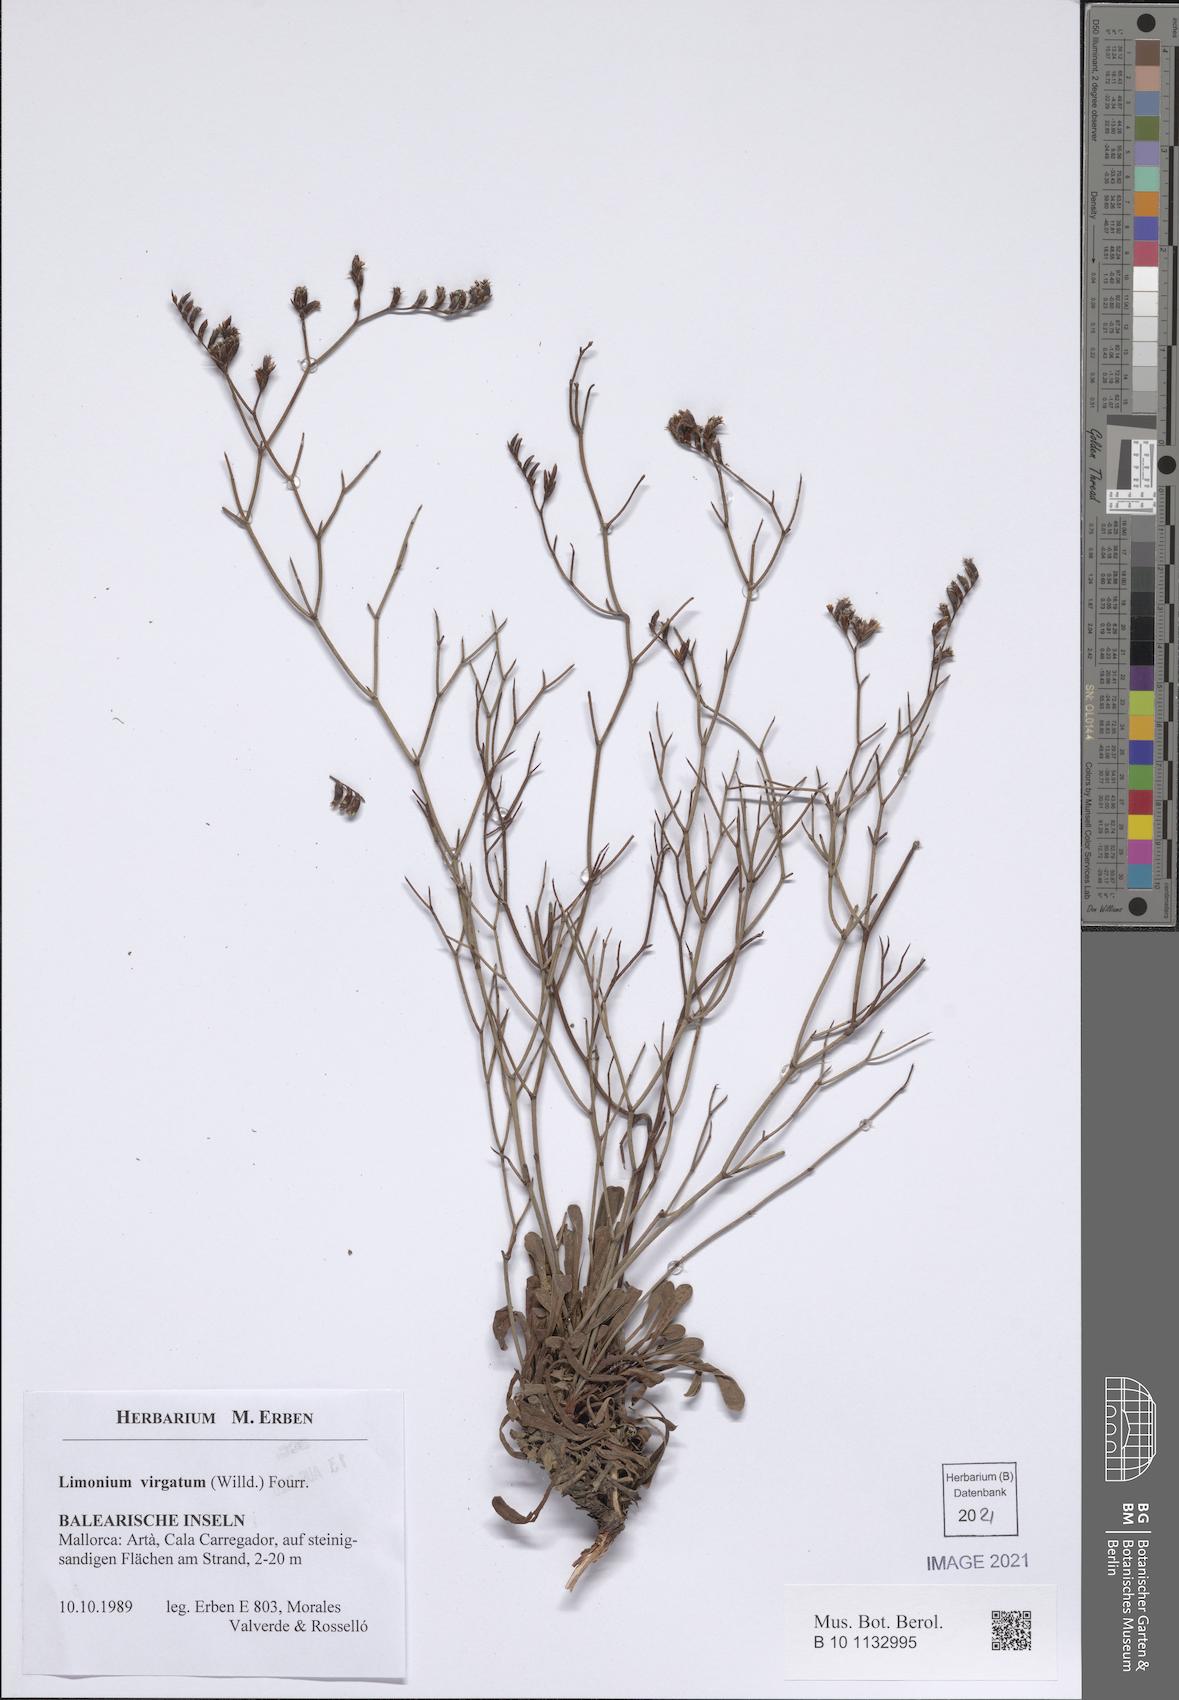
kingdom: Plantae
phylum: Tracheophyta
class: Magnoliopsida
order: Caryophyllales
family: Plumbaginaceae
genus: Limonium
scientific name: Limonium virgatum
